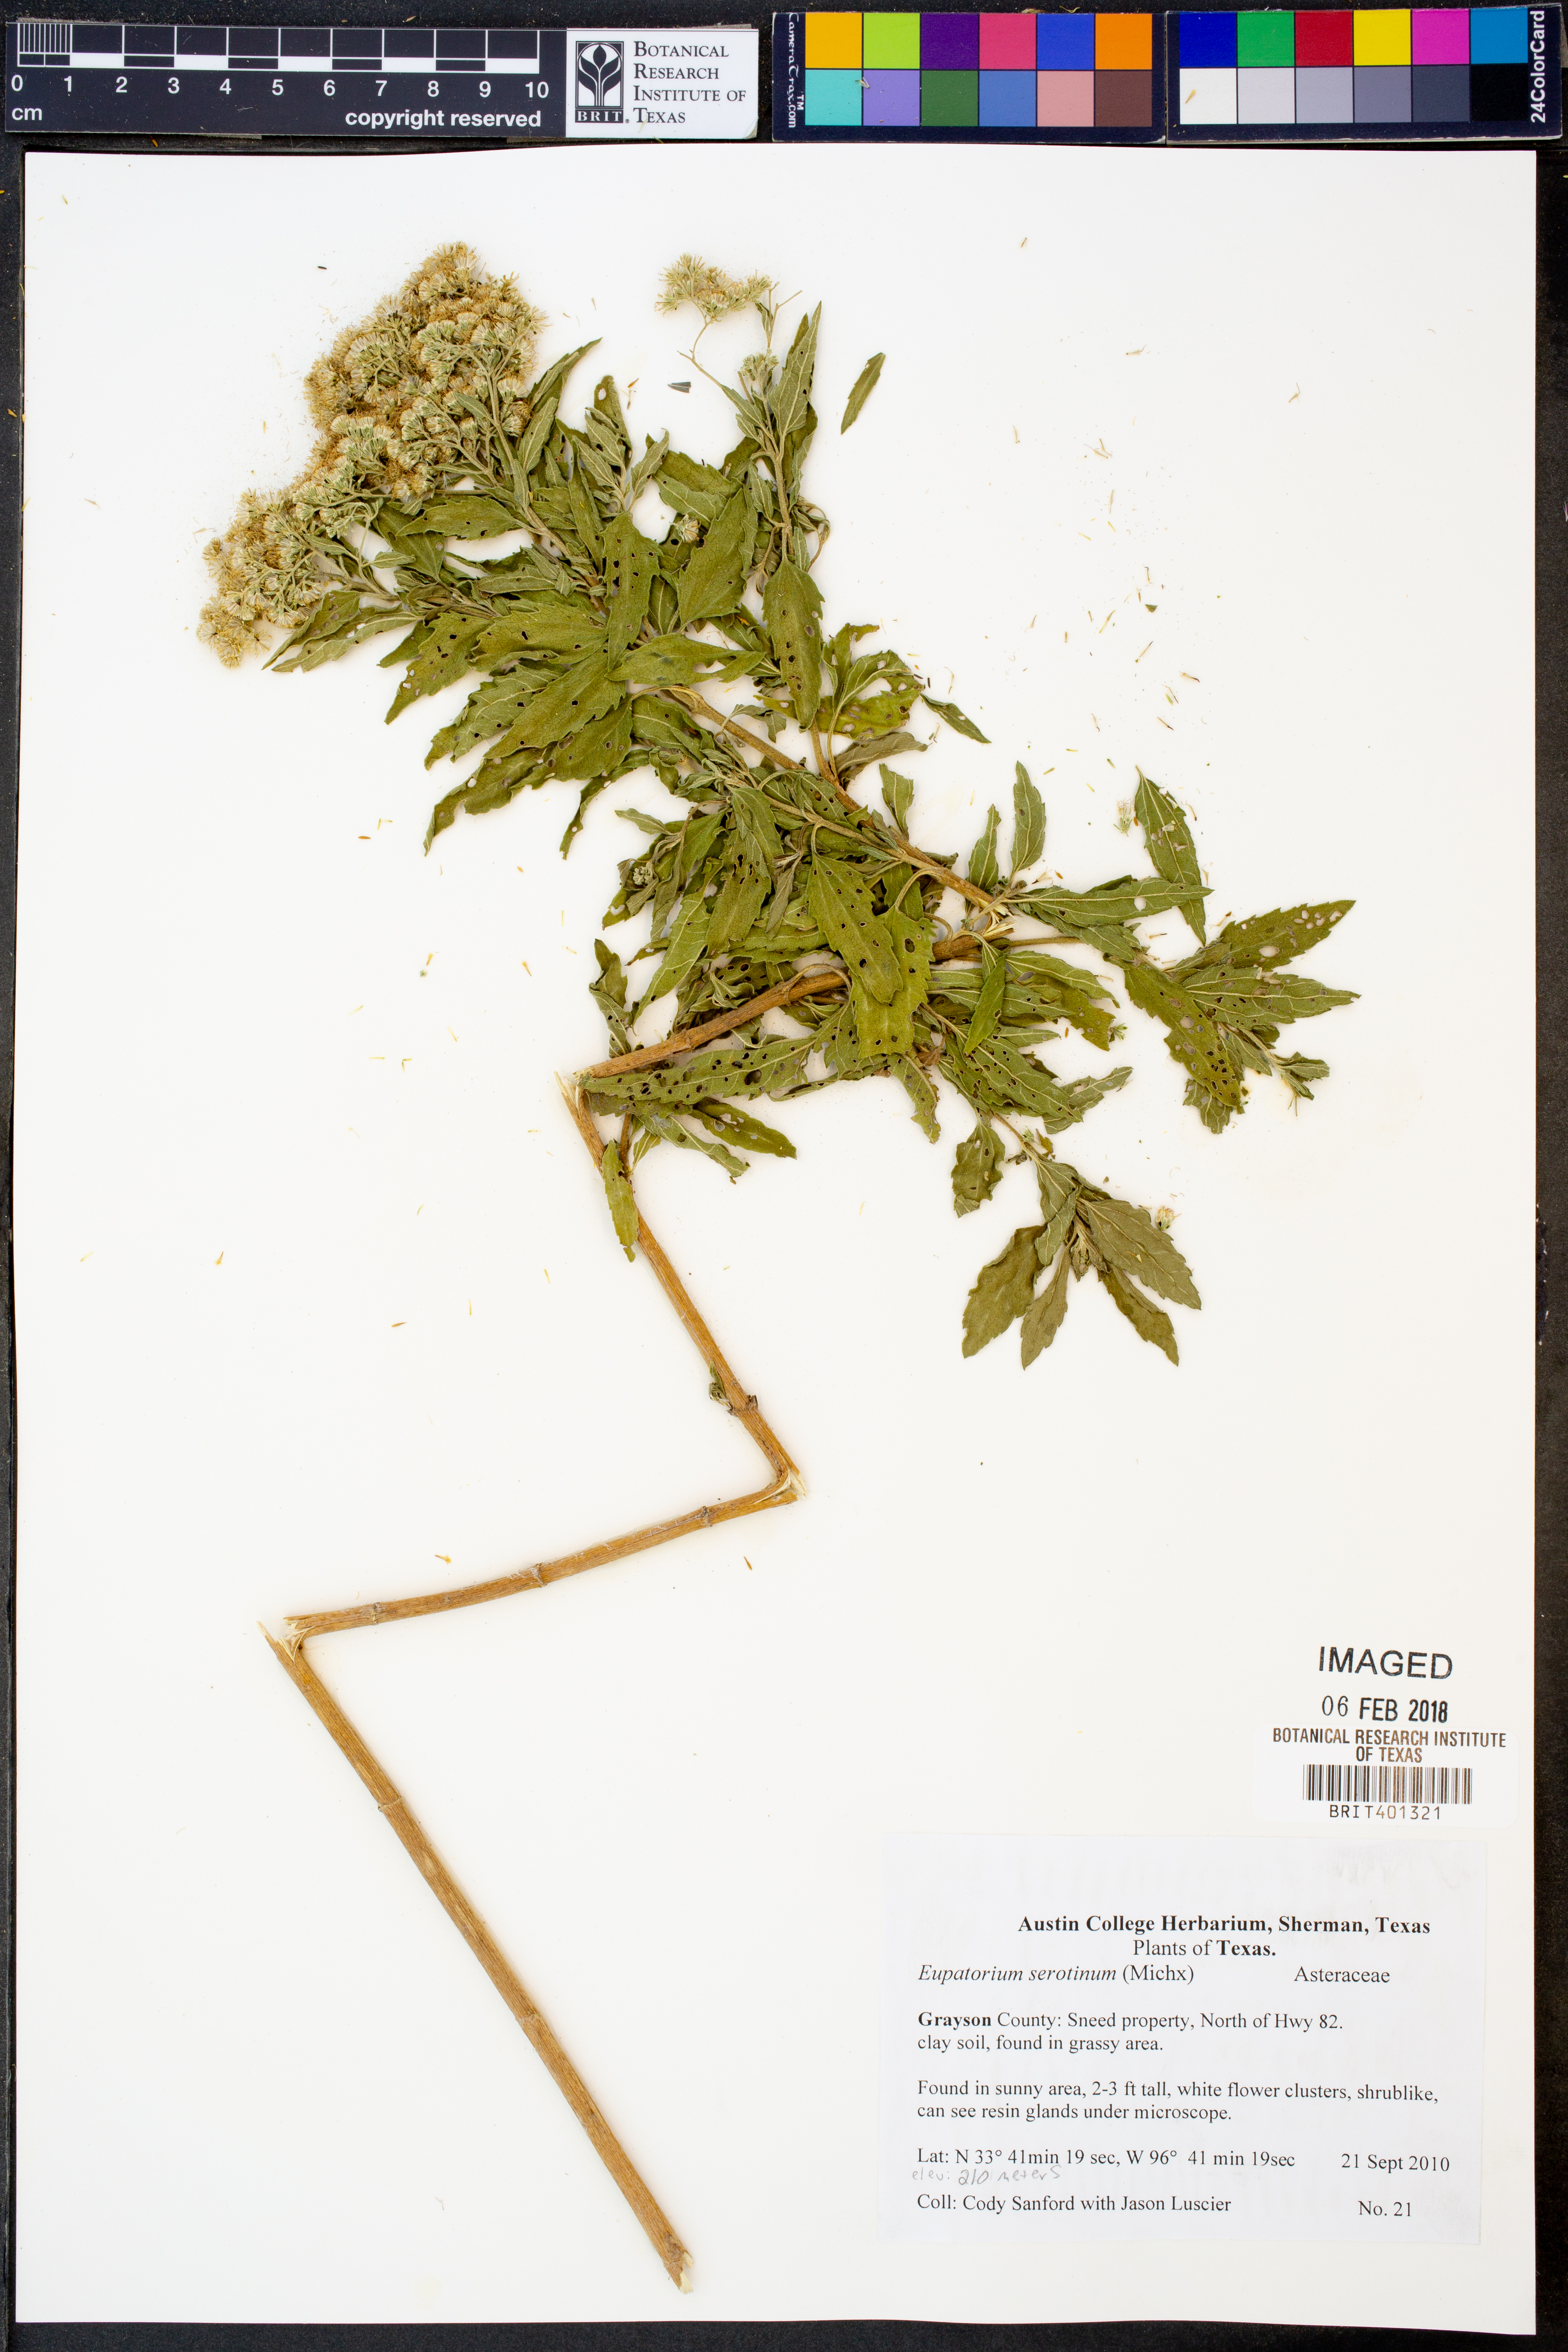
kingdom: Plantae
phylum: Tracheophyta
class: Magnoliopsida
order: Asterales
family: Asteraceae
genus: Eupatorium
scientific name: Eupatorium serotinum
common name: Late boneset
